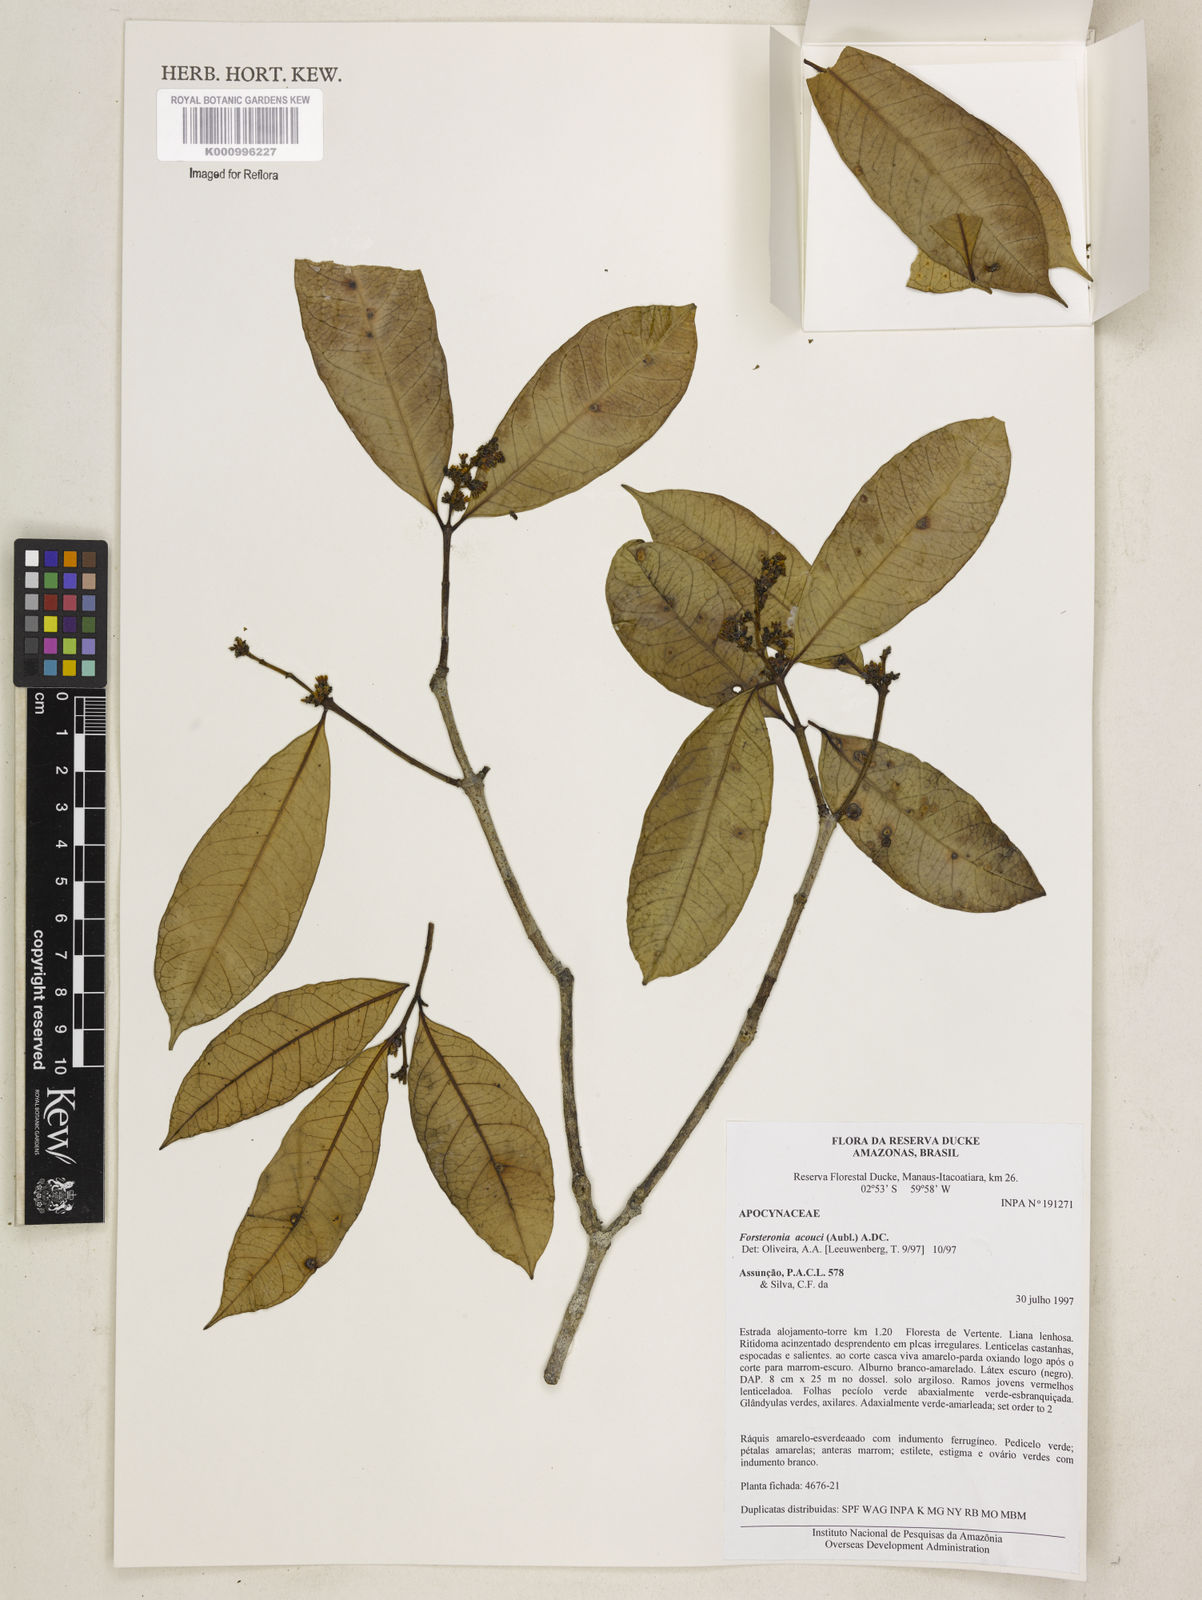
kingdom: Plantae
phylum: Tracheophyta
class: Magnoliopsida
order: Gentianales
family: Apocynaceae
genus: Forsteronia
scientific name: Forsteronia acouci
